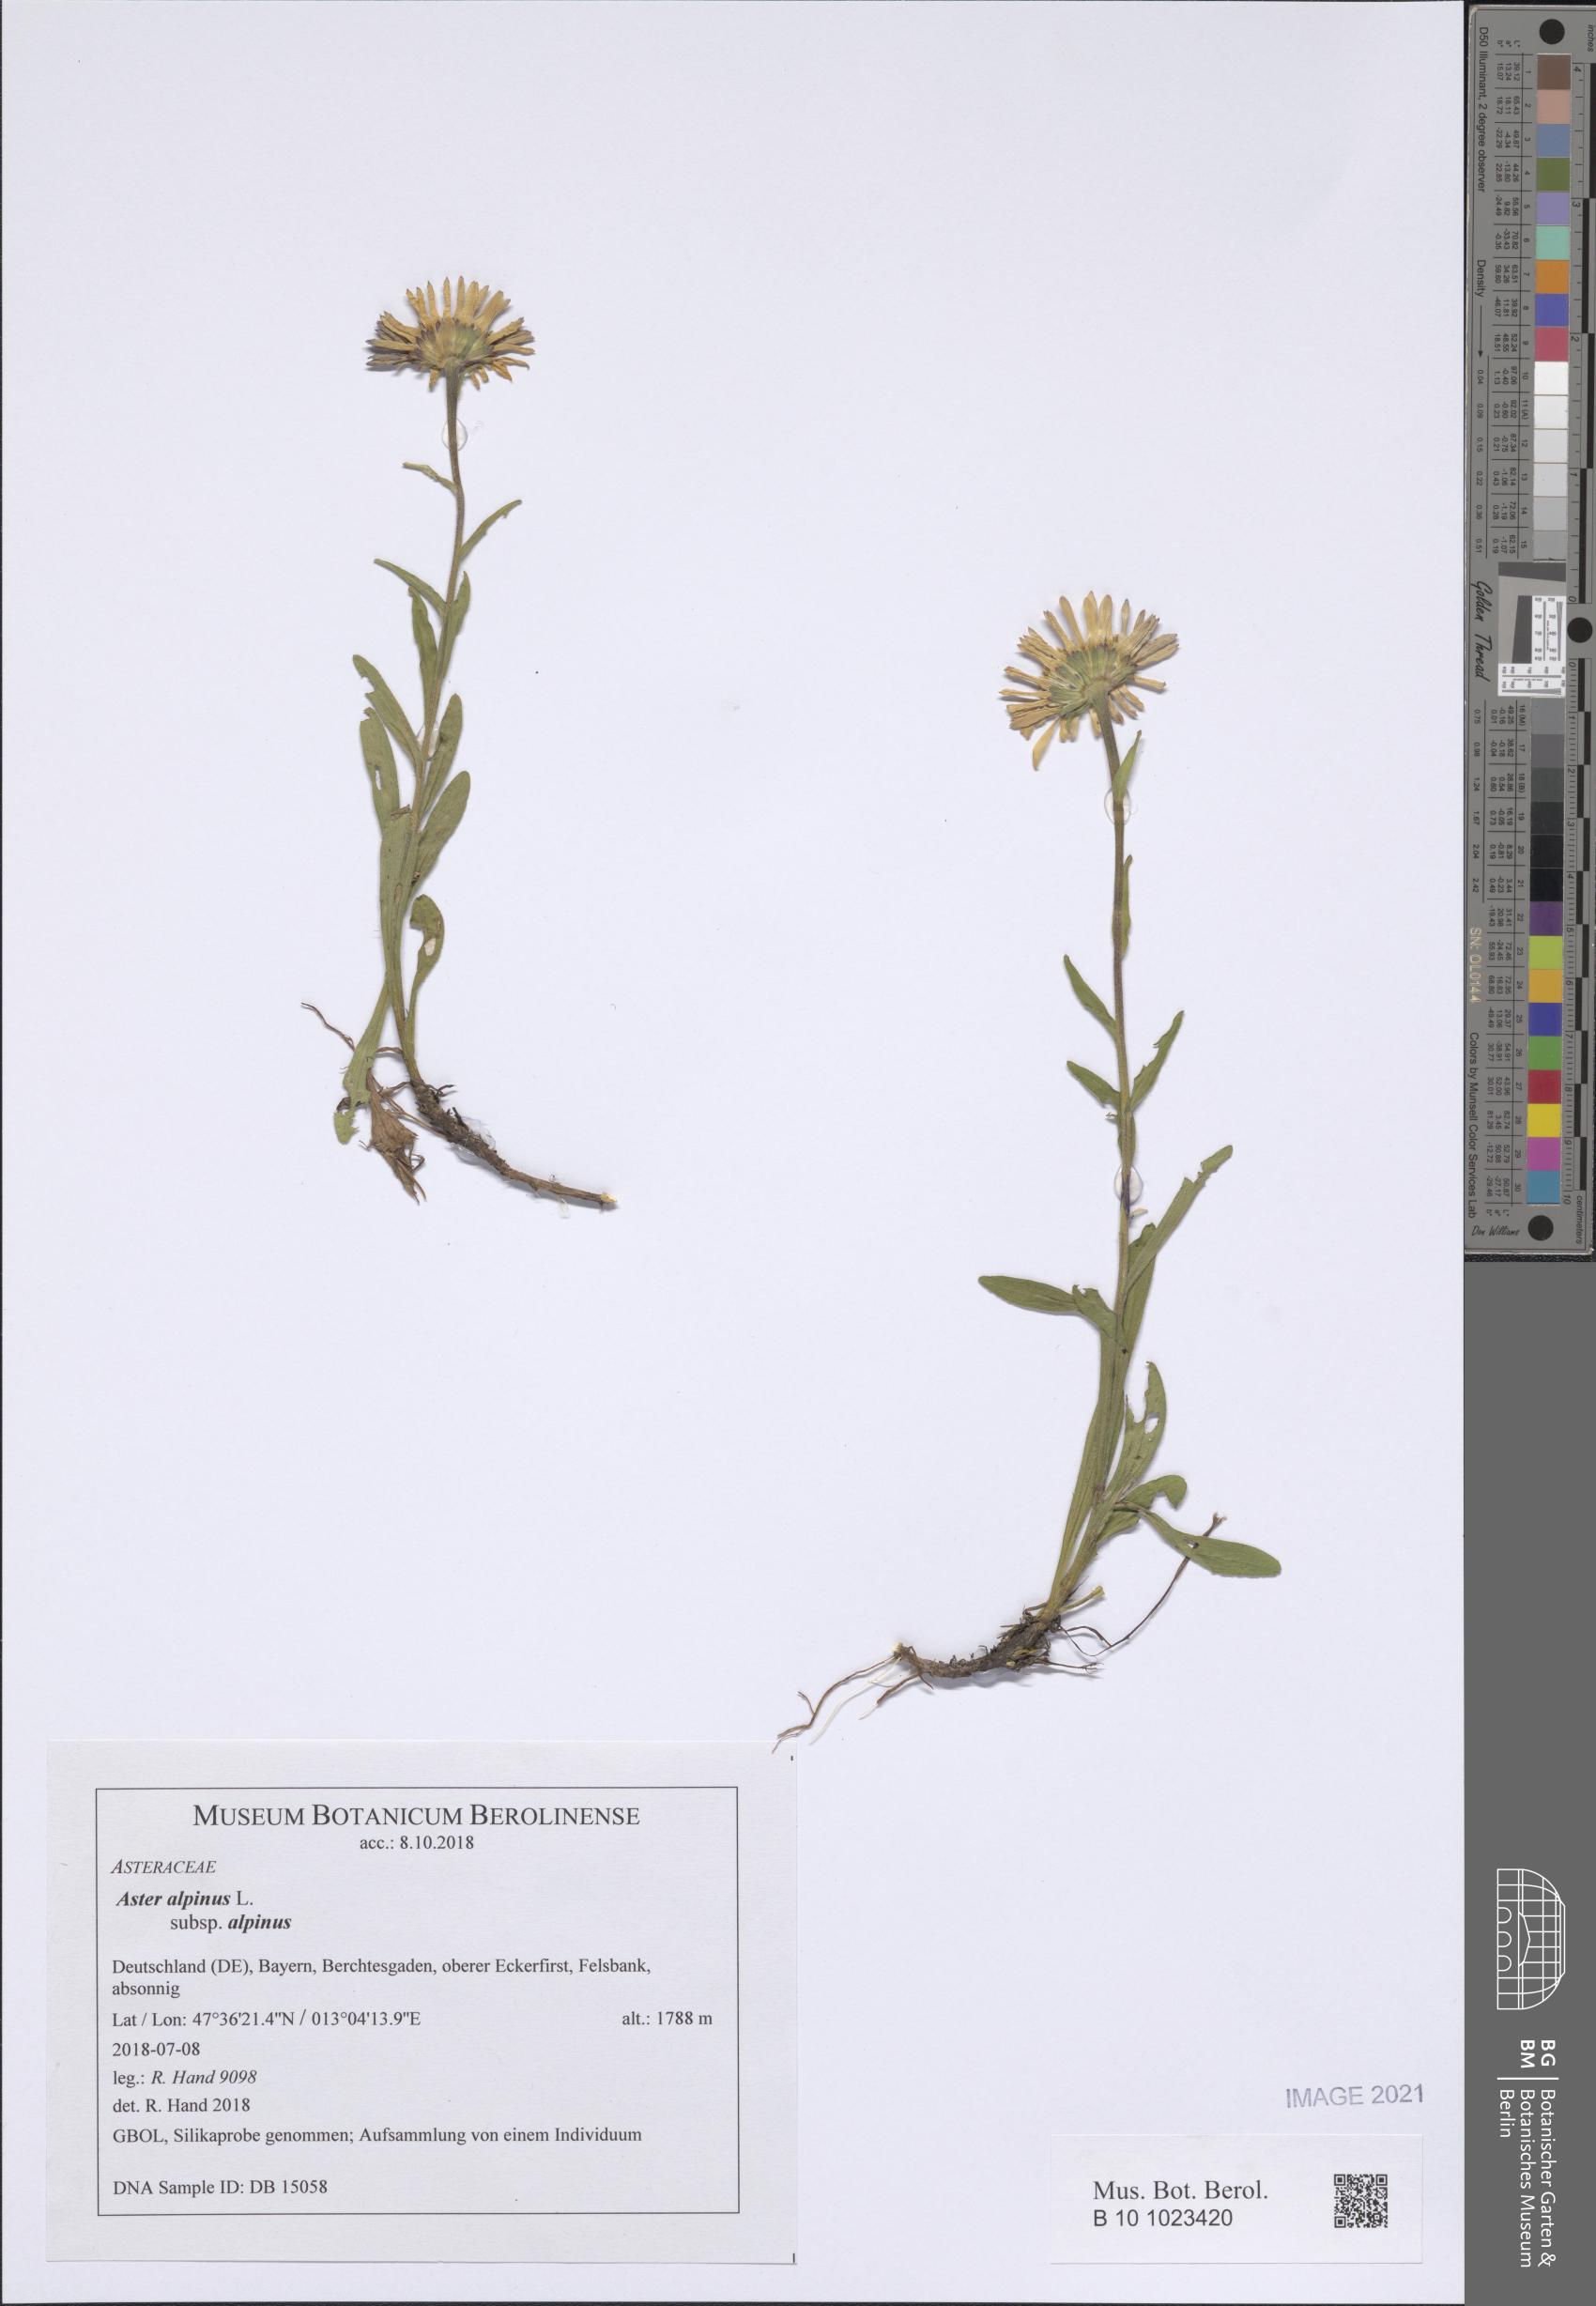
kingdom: Plantae
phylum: Tracheophyta
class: Magnoliopsida
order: Asterales
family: Asteraceae
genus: Aster
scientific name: Aster alpinus
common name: Alpine aster
